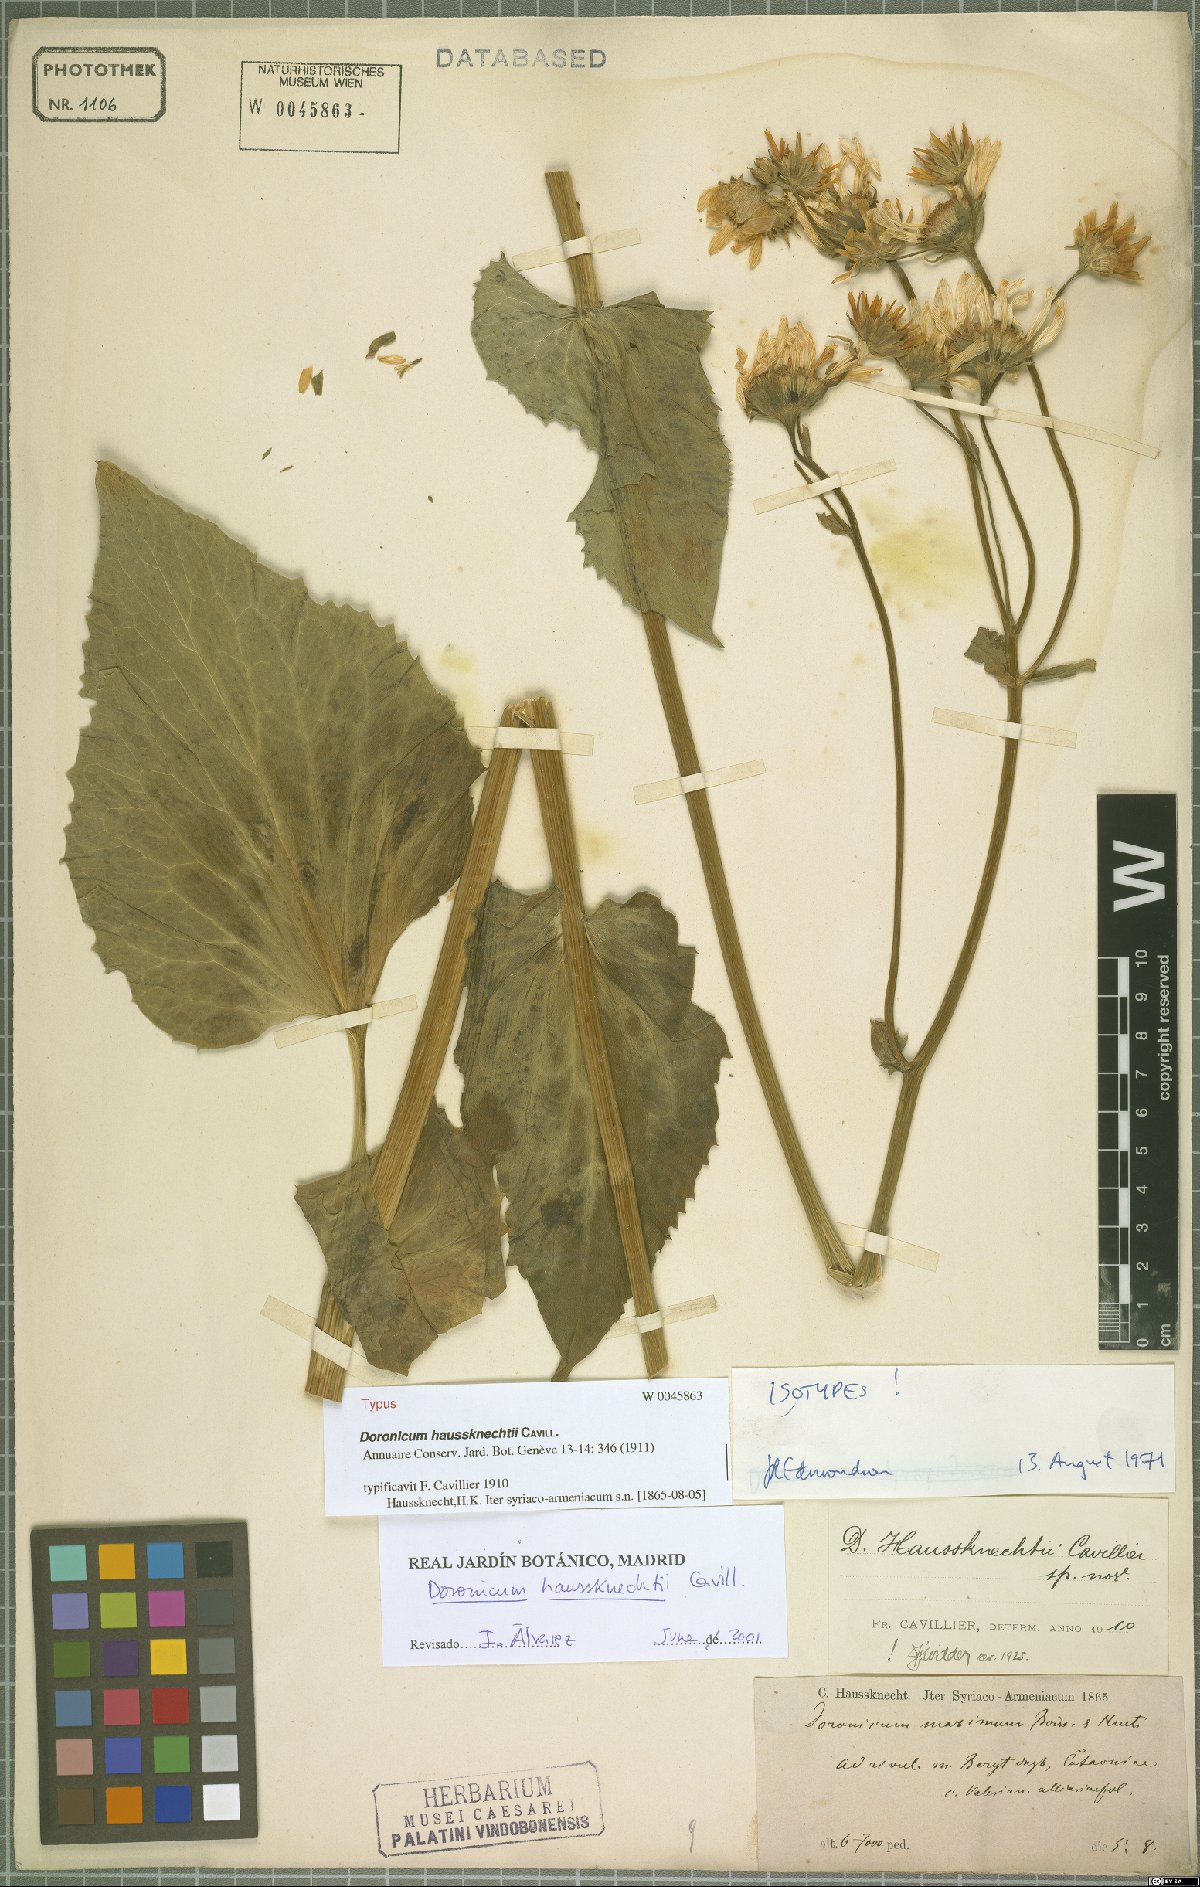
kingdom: Plantae
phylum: Tracheophyta
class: Magnoliopsida
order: Asterales
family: Asteraceae
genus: Doronicum
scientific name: Doronicum haussknechtii
